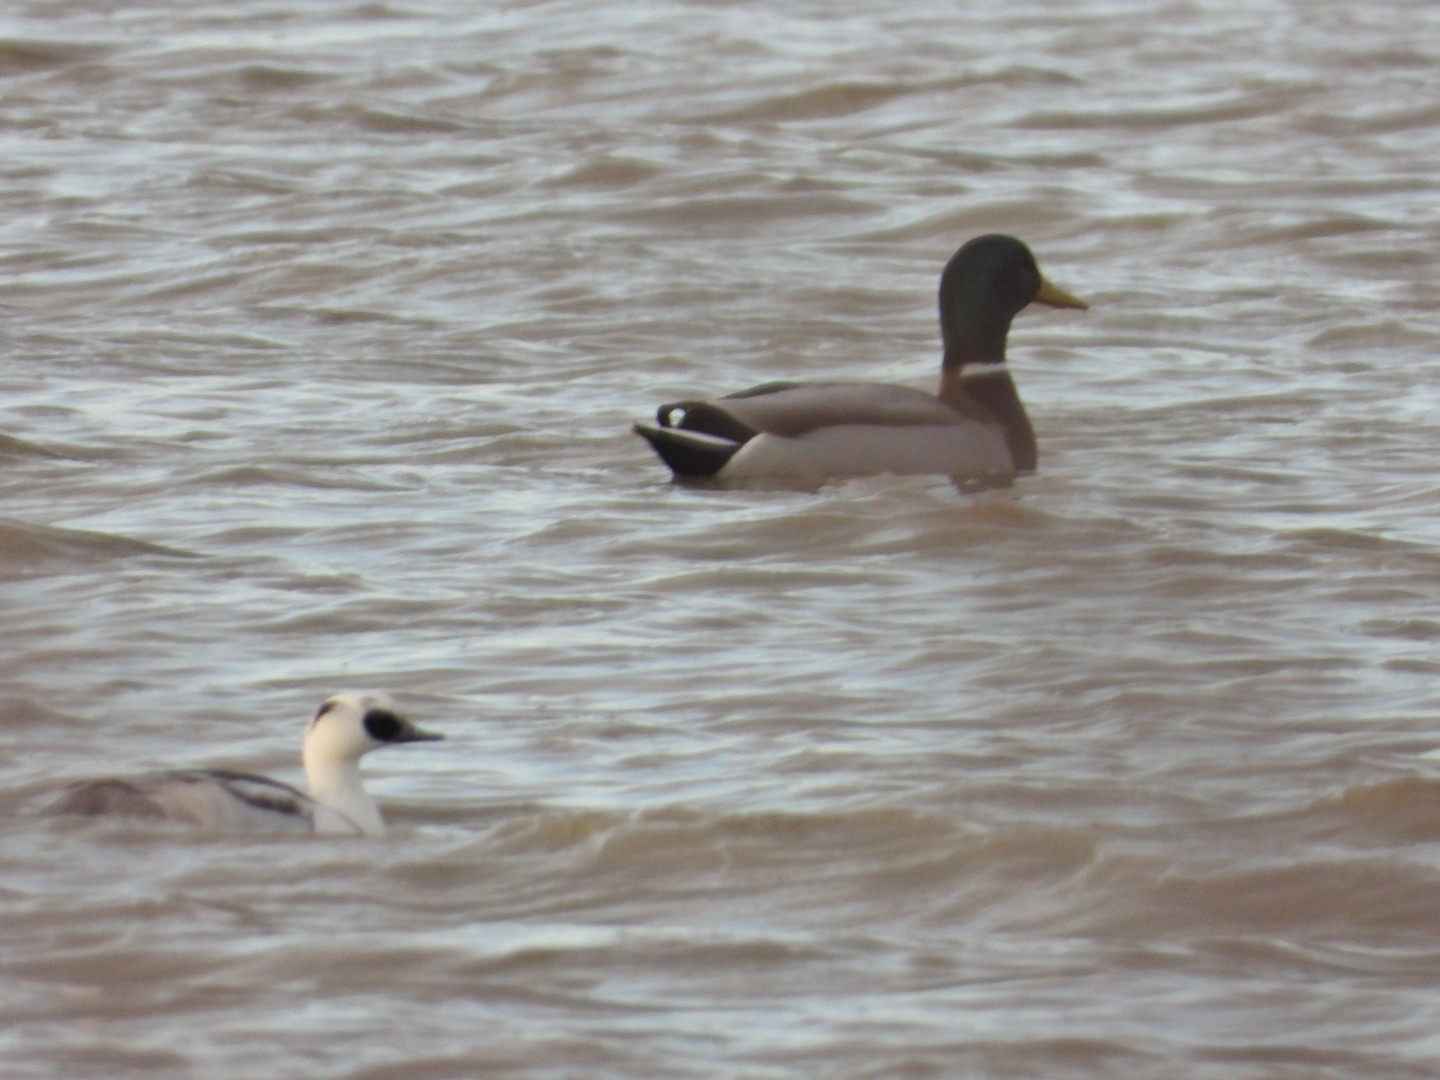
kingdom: Animalia
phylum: Chordata
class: Aves
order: Anseriformes
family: Anatidae
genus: Mergellus
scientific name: Mergellus albellus
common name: Lille skallesluger
